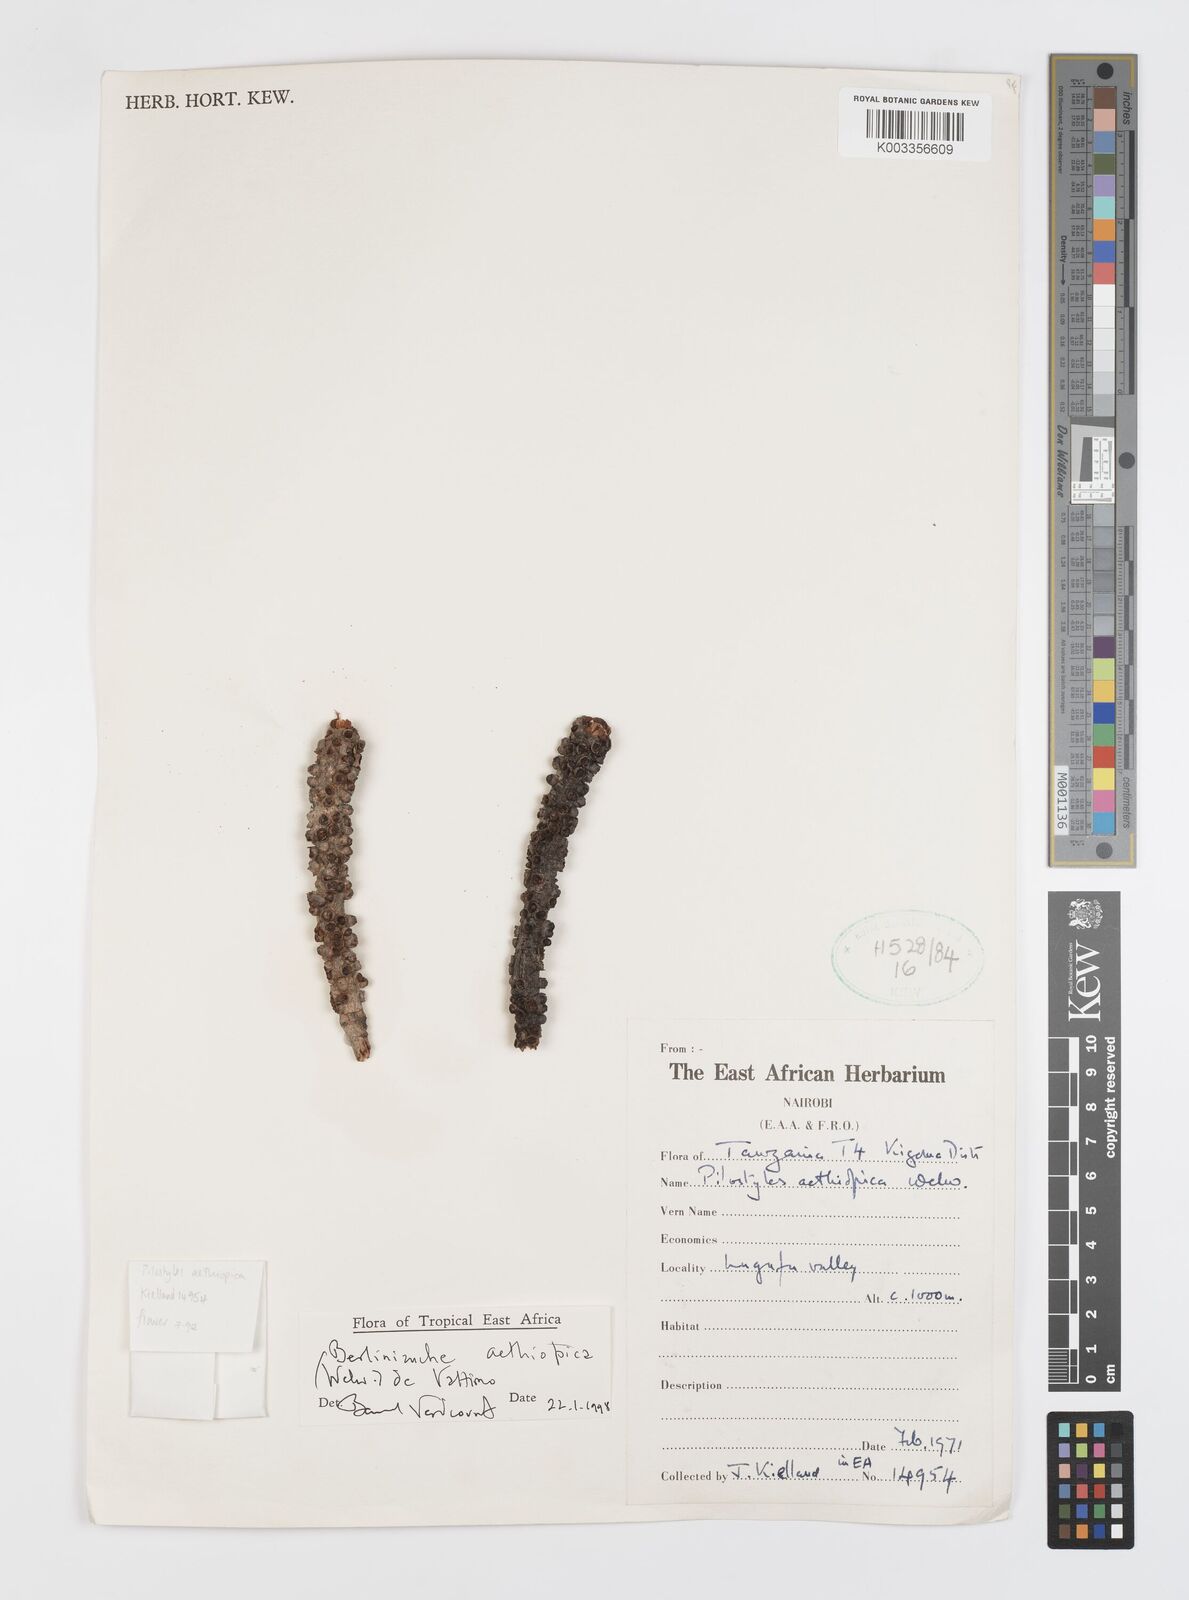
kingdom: Plantae
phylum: Tracheophyta
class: Magnoliopsida
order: Cucurbitales
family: Apodanthaceae
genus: Pilostyles
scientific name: Pilostyles aethiopica
